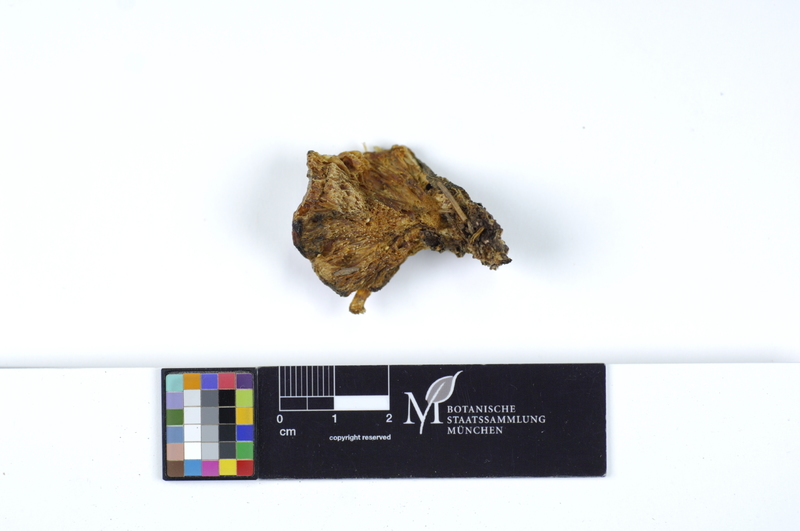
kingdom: Fungi
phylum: Basidiomycota
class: Agaricomycetes
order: Polyporales
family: Fomitopsidaceae
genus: Climacocystis
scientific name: Climacocystis borealis
